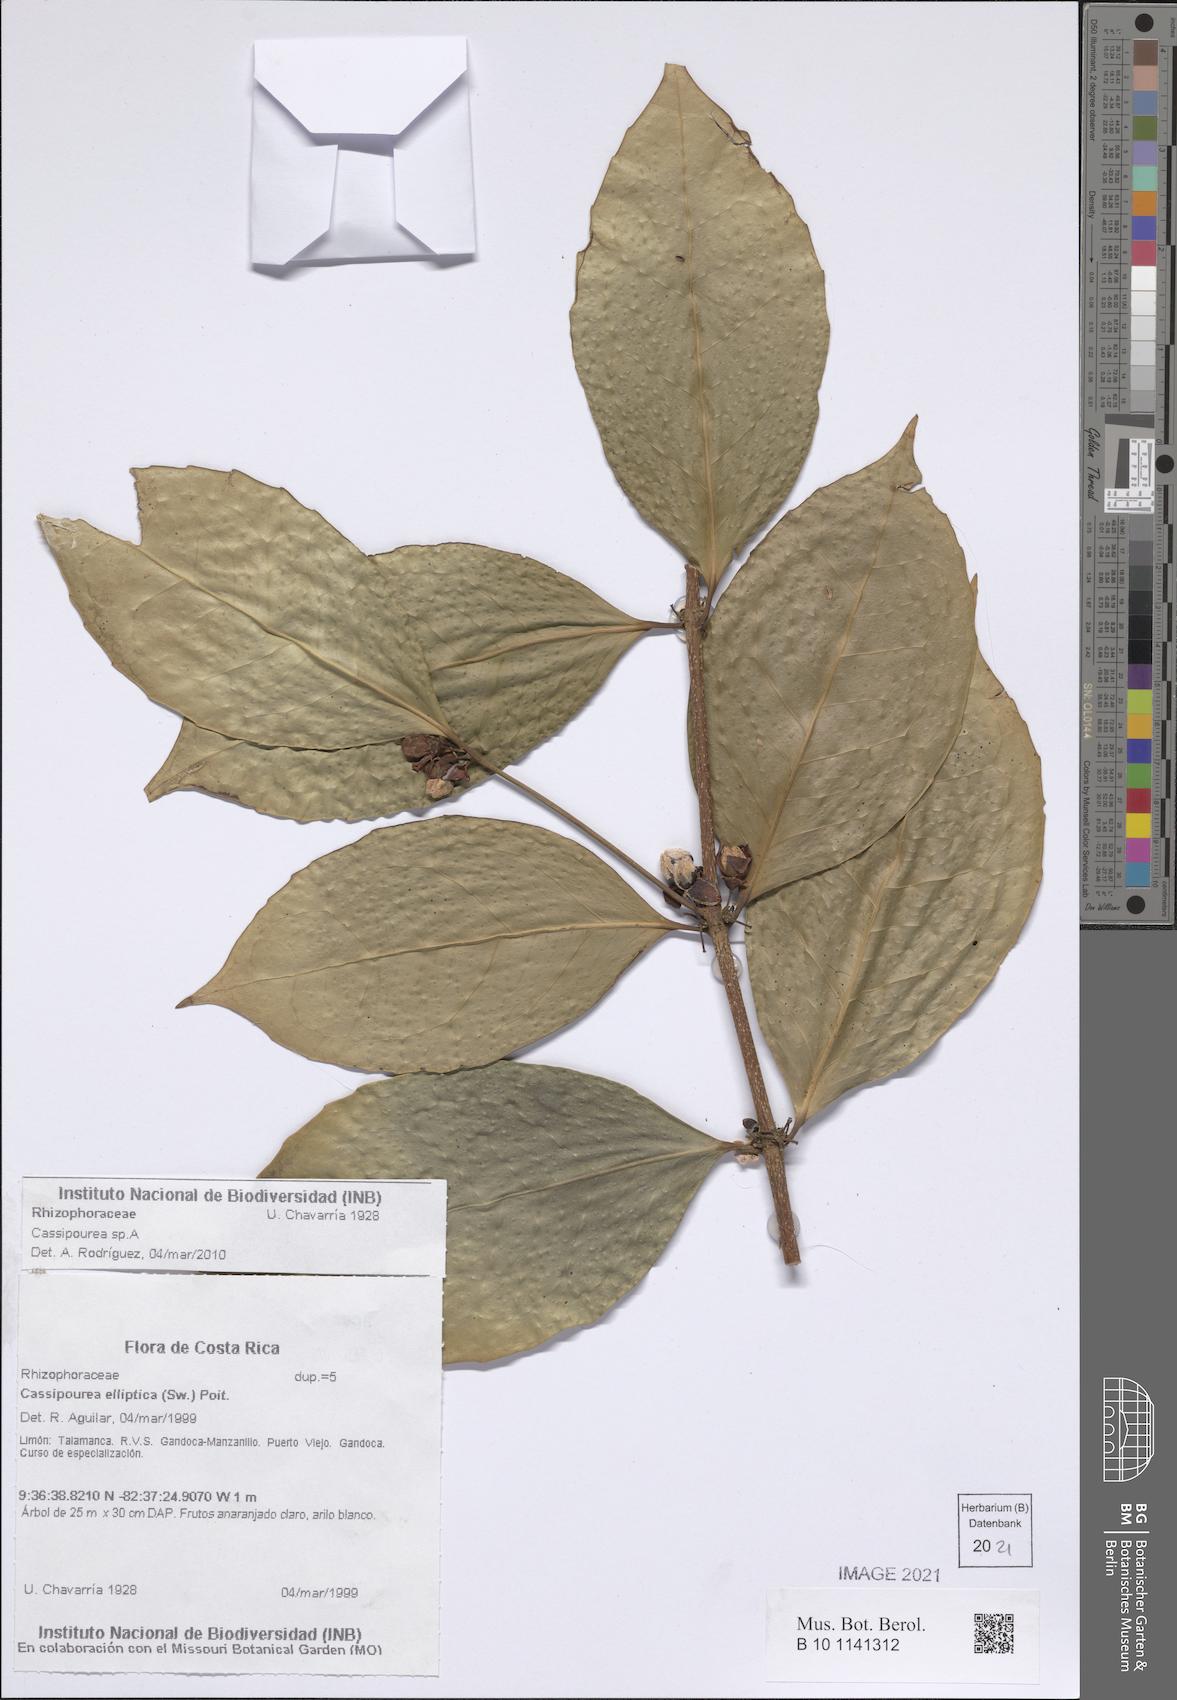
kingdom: Plantae
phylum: Tracheophyta
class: Magnoliopsida
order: Malpighiales
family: Rhizophoraceae
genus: Cassipourea
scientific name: Cassipourea
